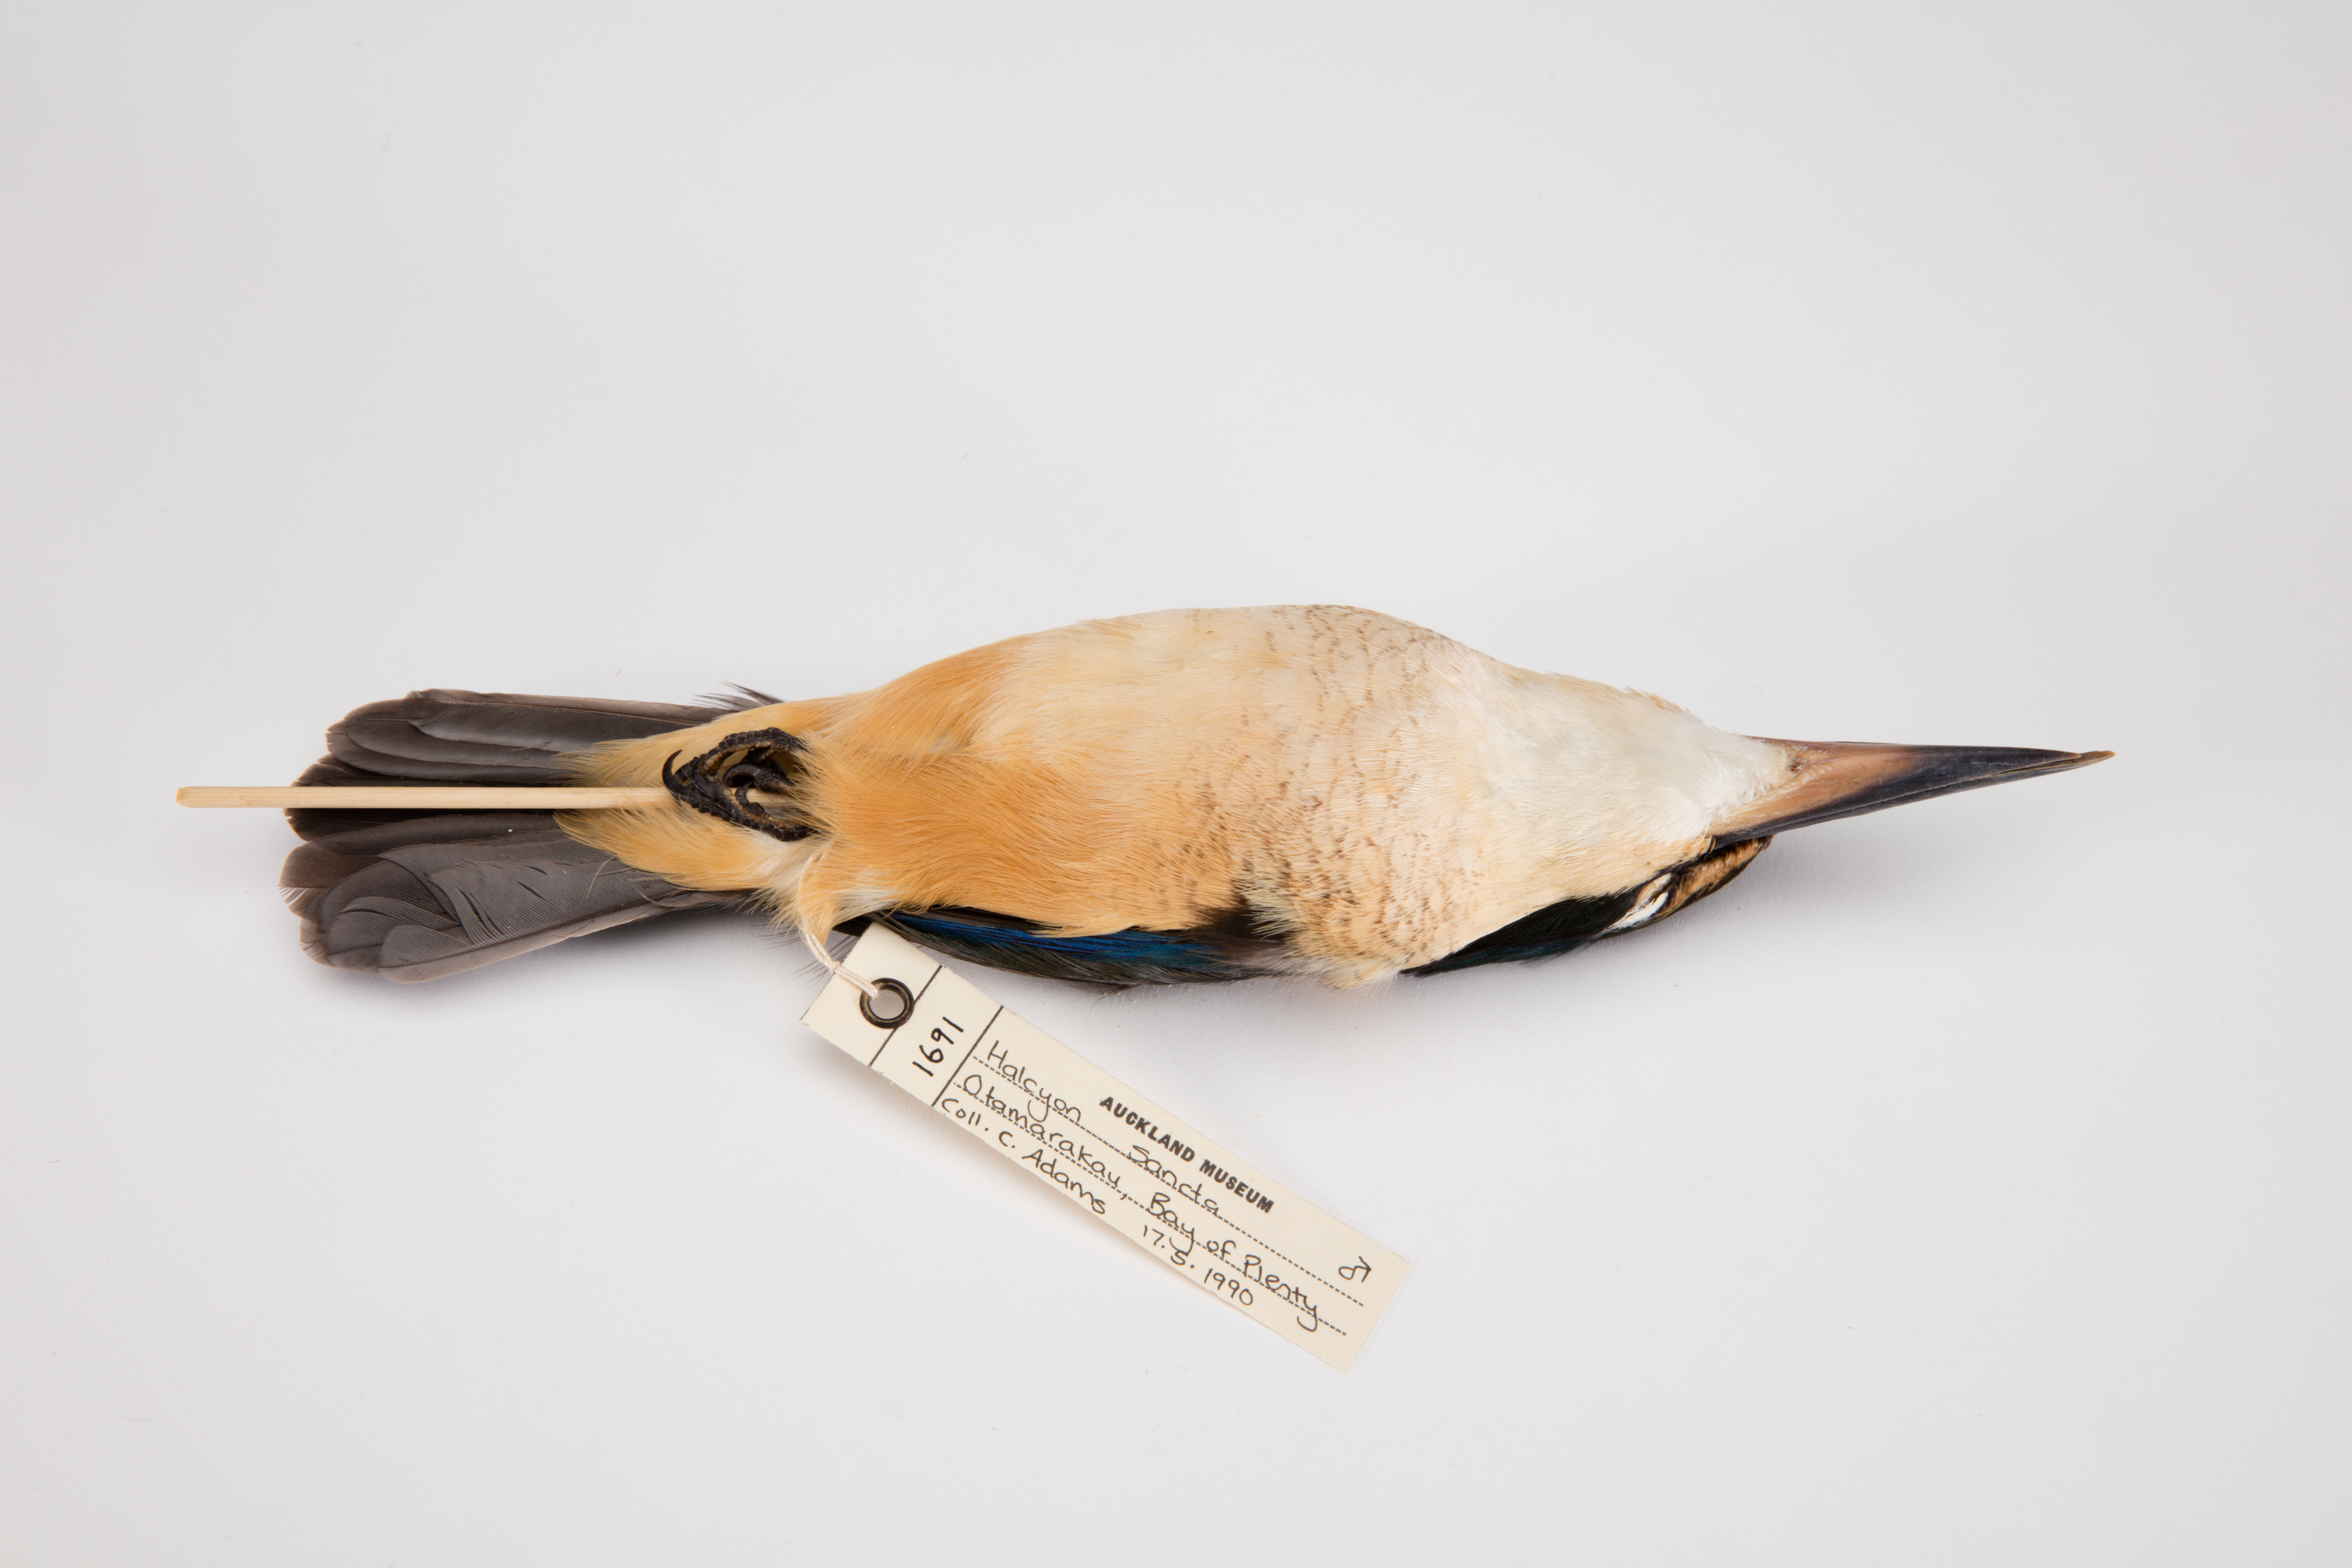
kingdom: Animalia
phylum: Chordata
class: Aves
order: Coraciiformes
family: Alcedinidae
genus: Todiramphus
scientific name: Todiramphus sanctus
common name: Sacred kingfisher
